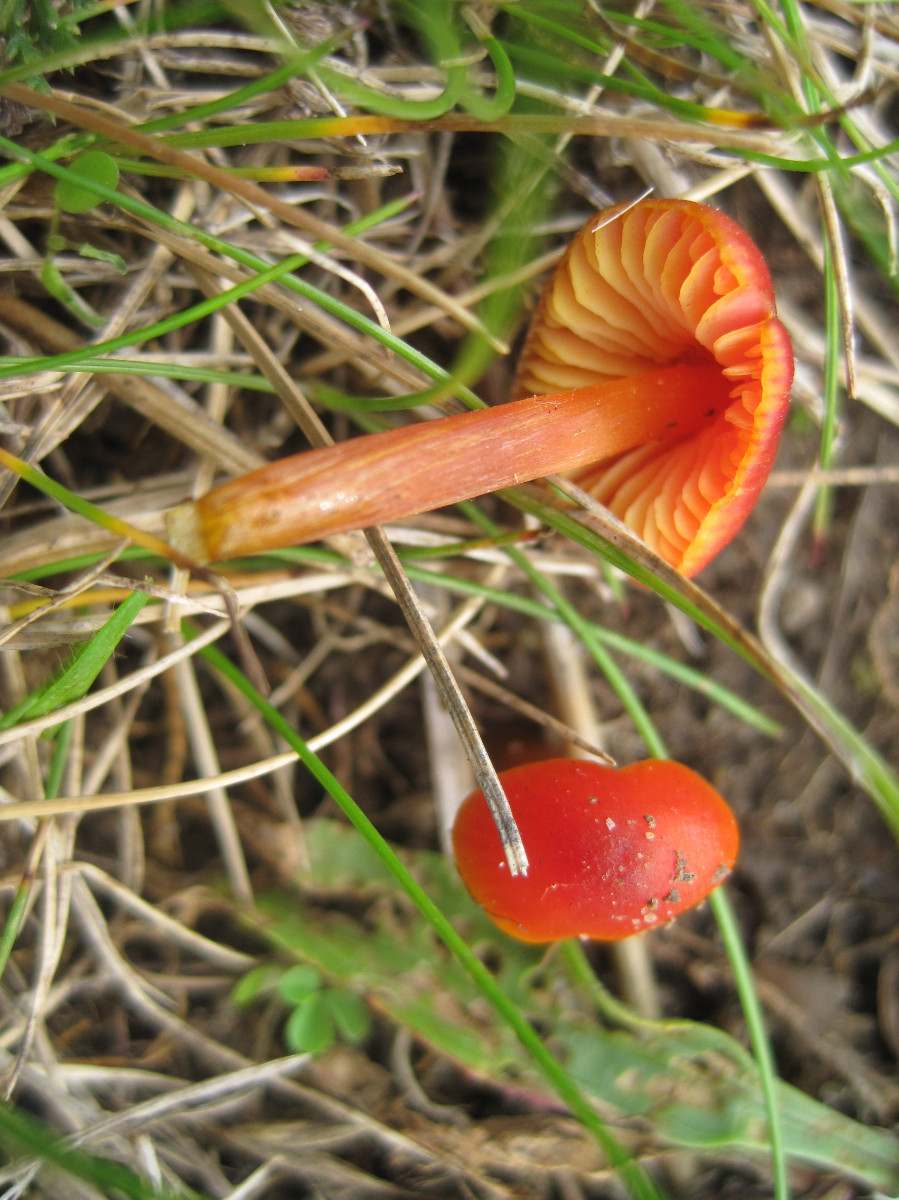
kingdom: Fungi
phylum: Basidiomycota
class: Agaricomycetes
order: Agaricales
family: Hygrophoraceae
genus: Hygrocybe
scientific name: Hygrocybe conica
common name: kegle-vokshat
